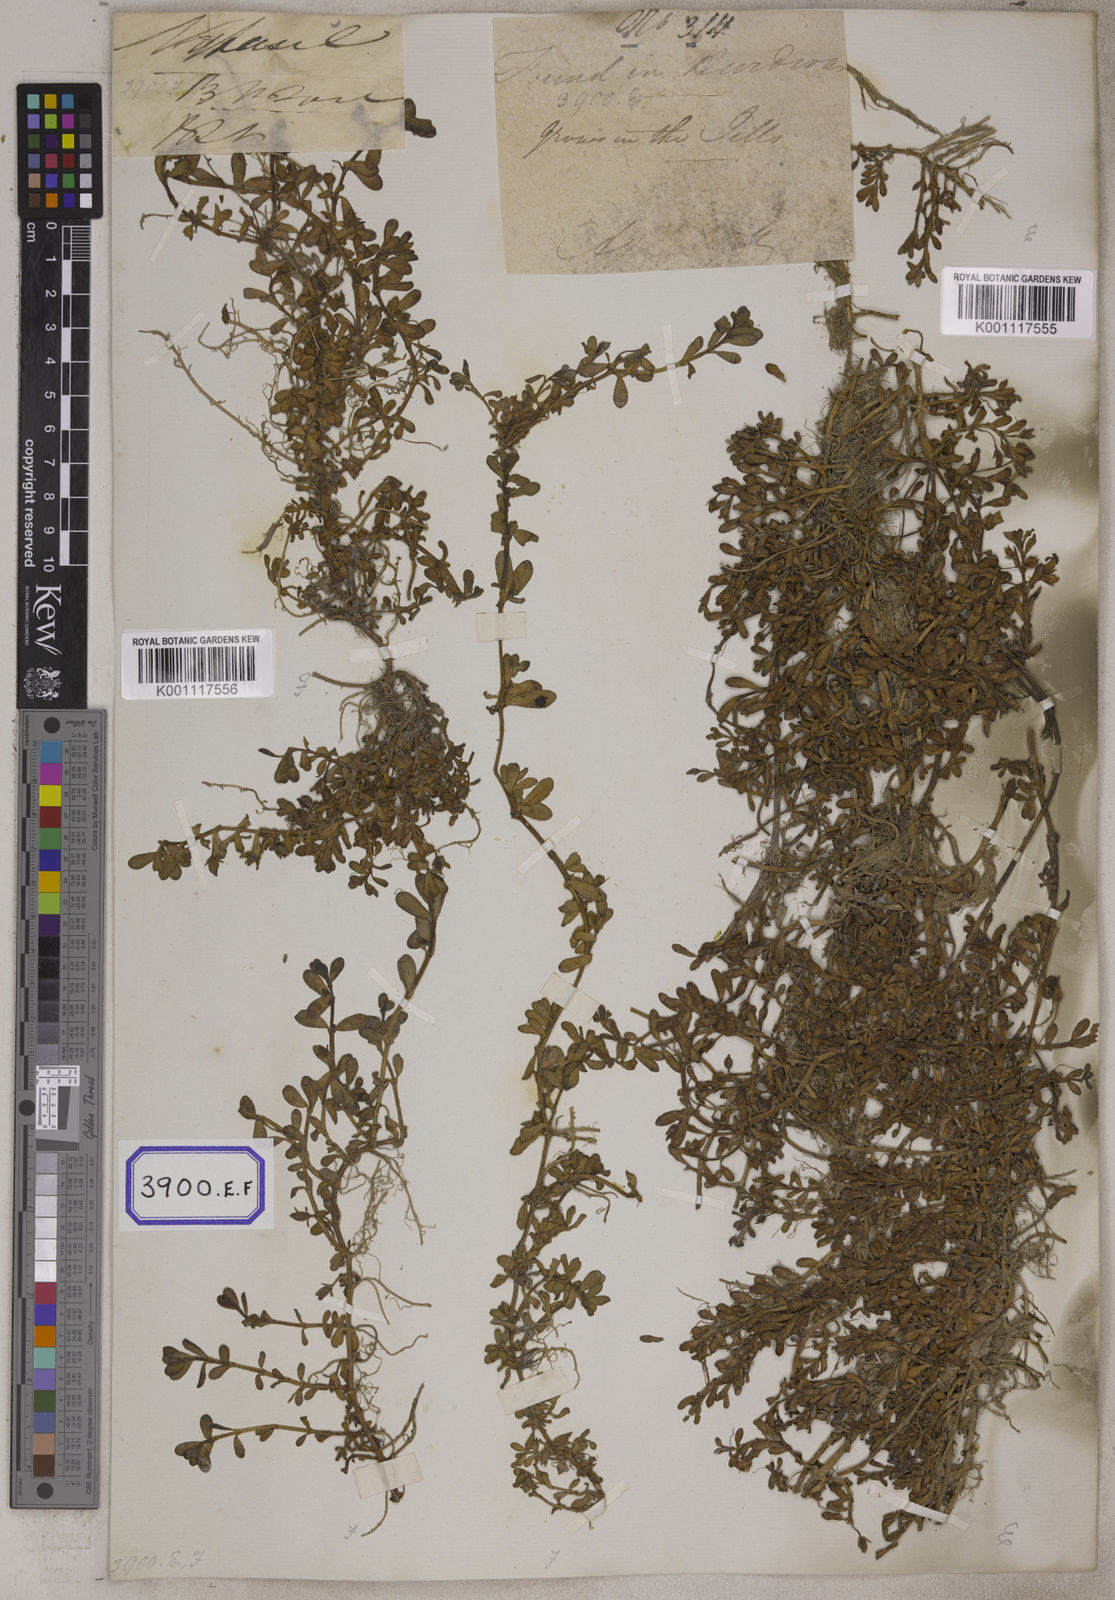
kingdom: Plantae
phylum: Tracheophyta
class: Magnoliopsida
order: Lamiales
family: Plantaginaceae
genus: Bacopa
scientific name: Bacopa monnieri
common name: Indian-pennywort
